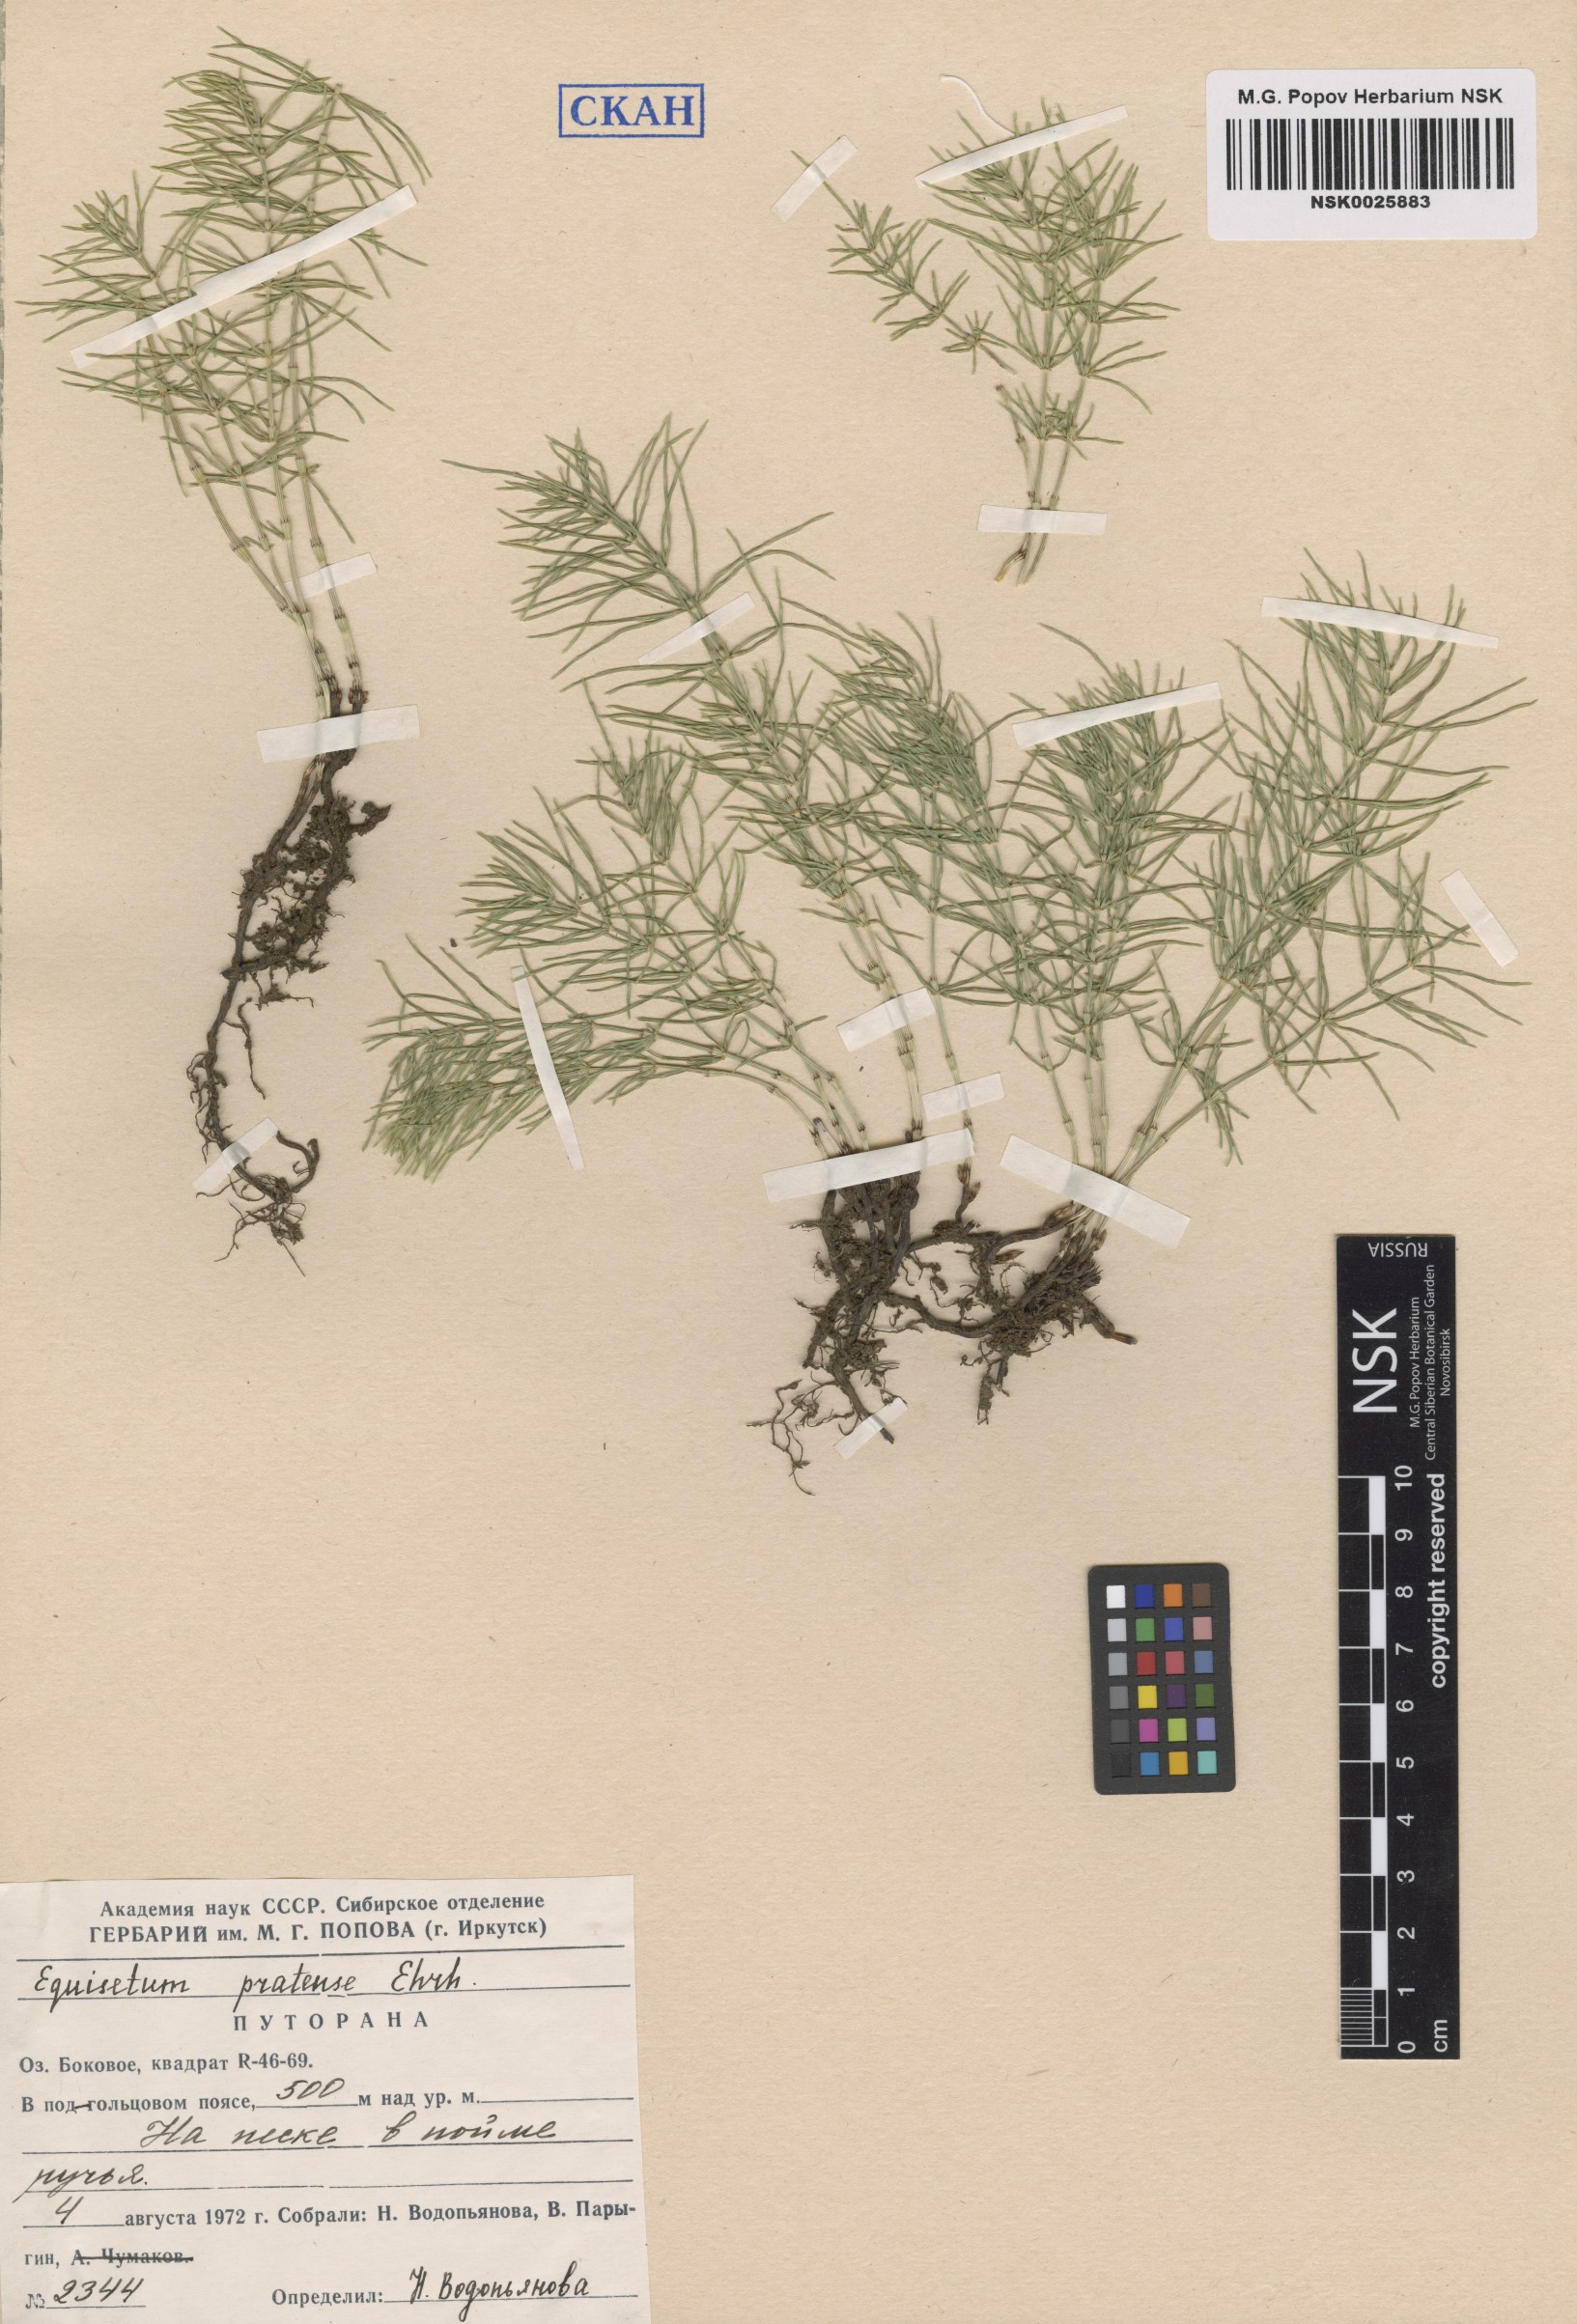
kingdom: Plantae
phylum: Tracheophyta
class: Polypodiopsida
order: Equisetales
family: Equisetaceae
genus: Equisetum
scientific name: Equisetum pratense
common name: Meadow horsetail
